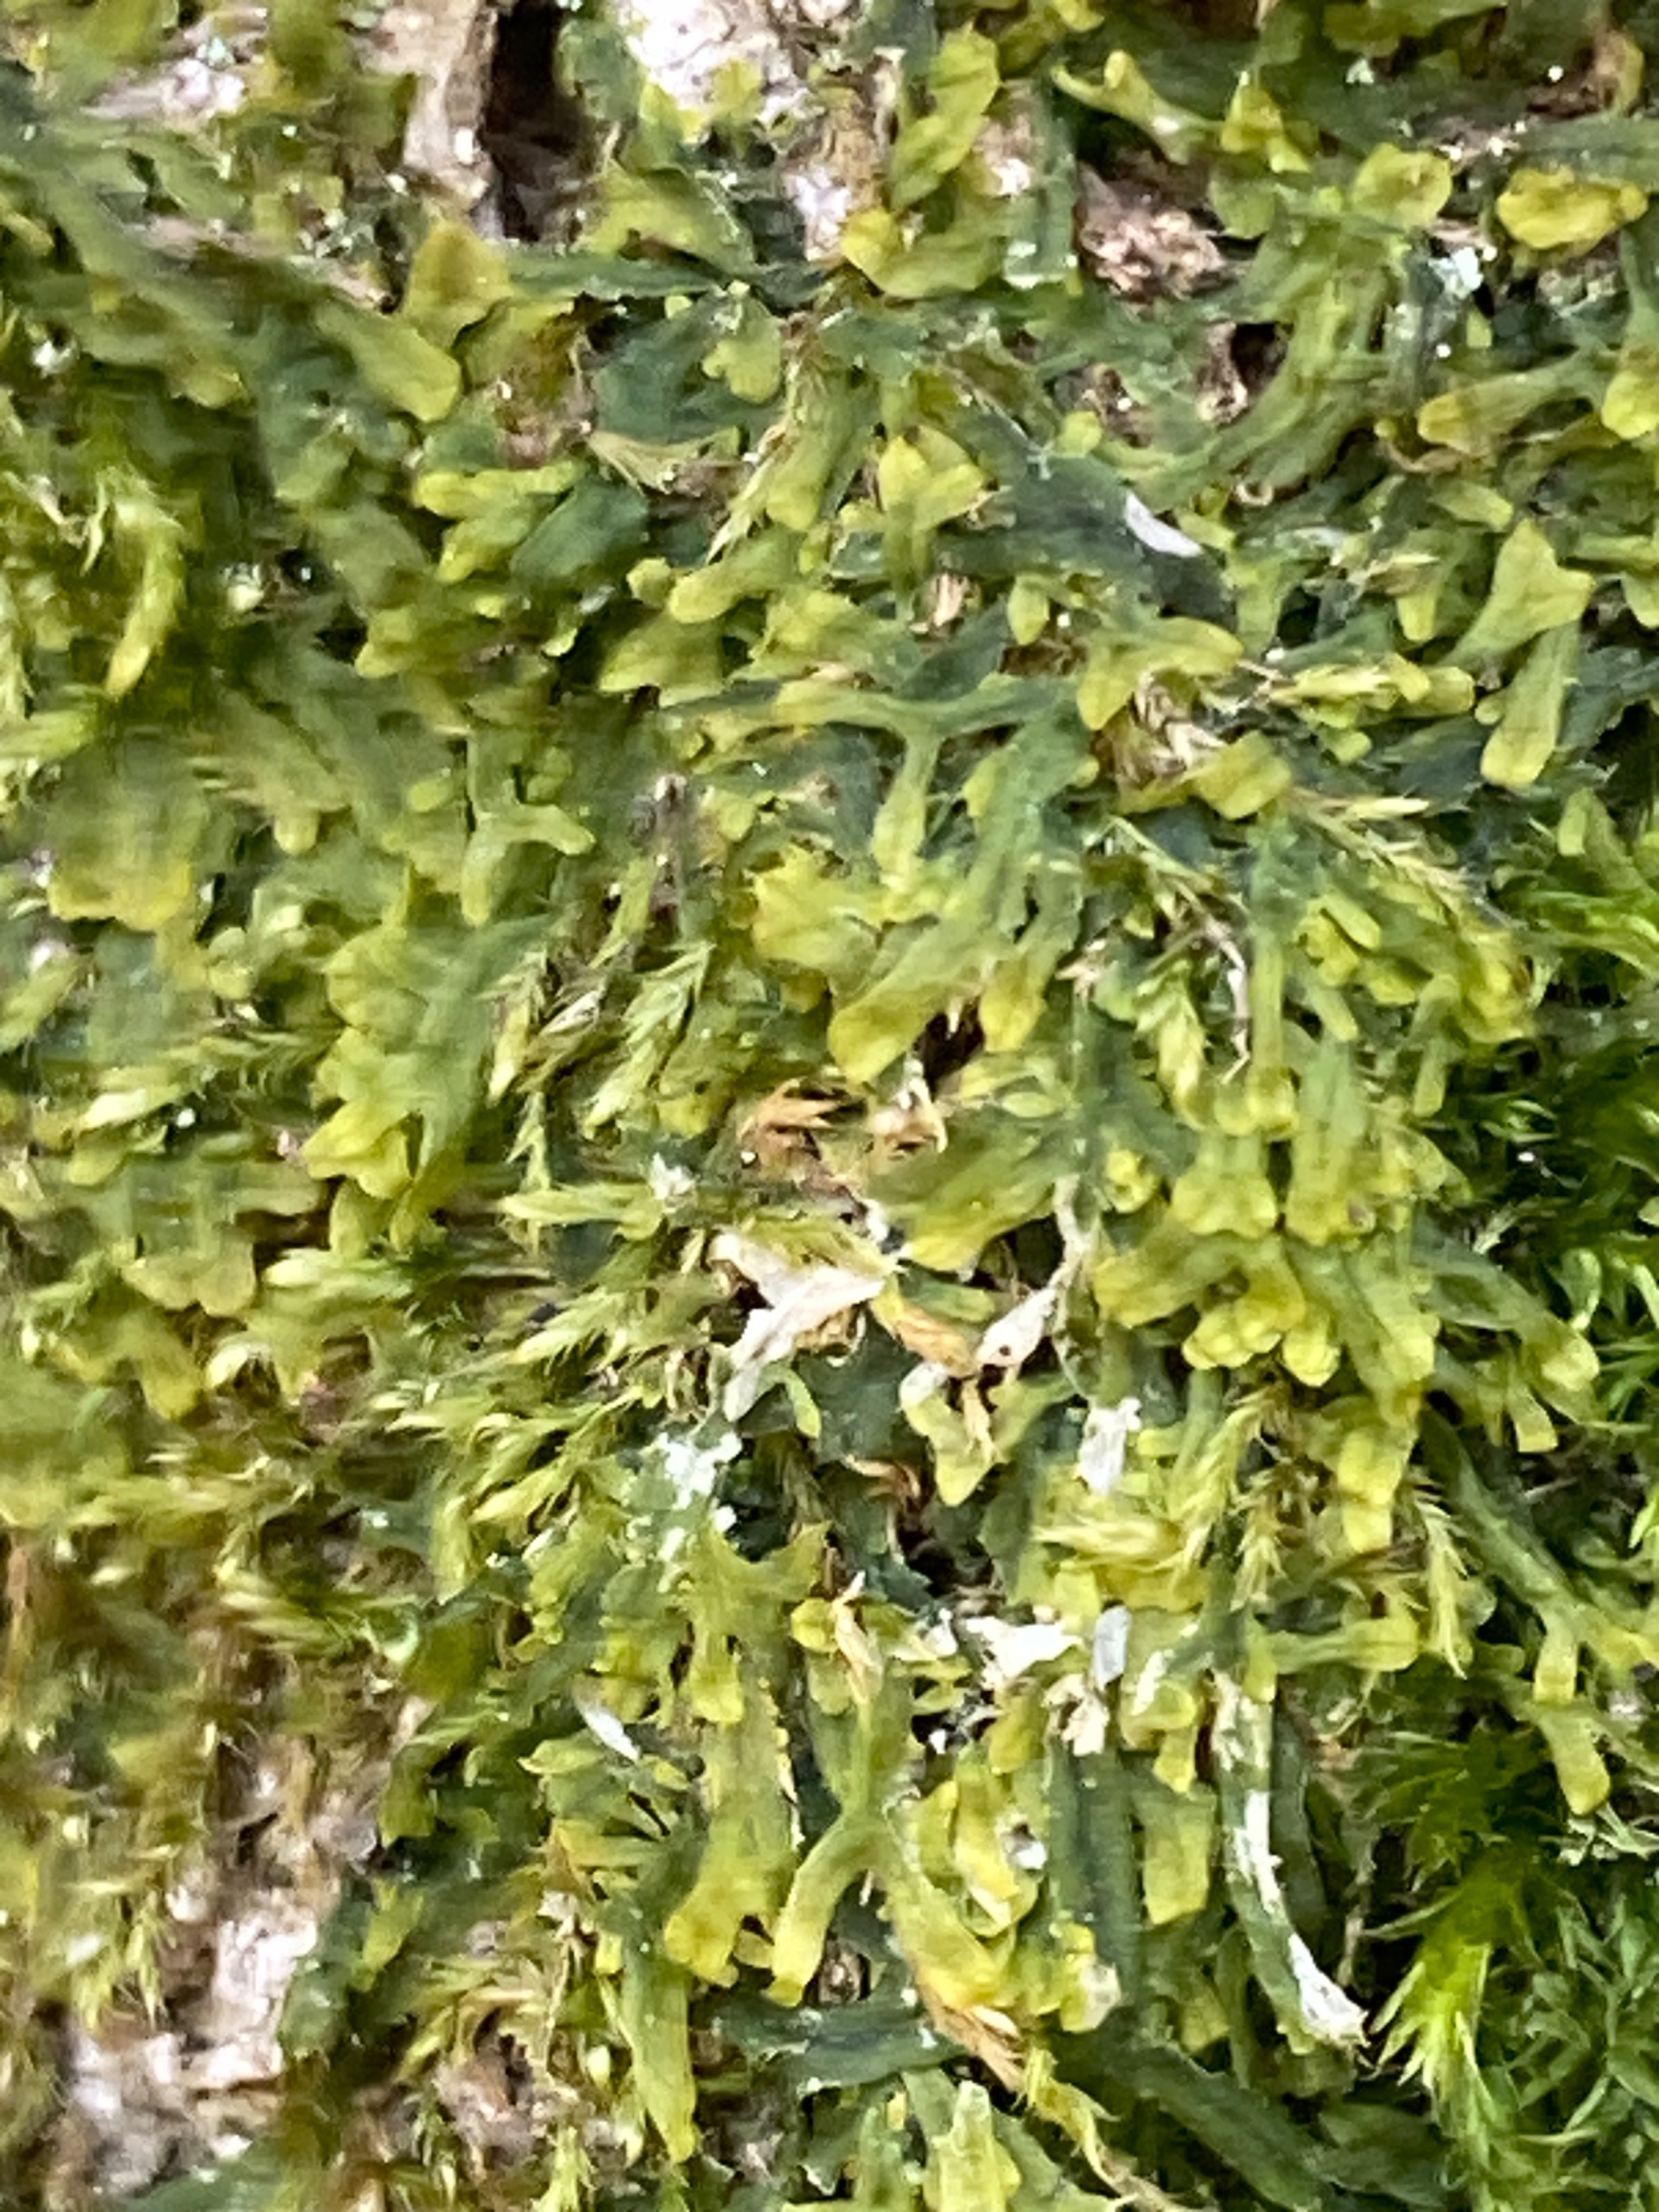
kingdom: Plantae
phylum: Marchantiophyta
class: Jungermanniopsida
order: Metzgeriales
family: Metzgeriaceae
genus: Metzgeria
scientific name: Metzgeria furcata
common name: Almindelig gaffelløv
